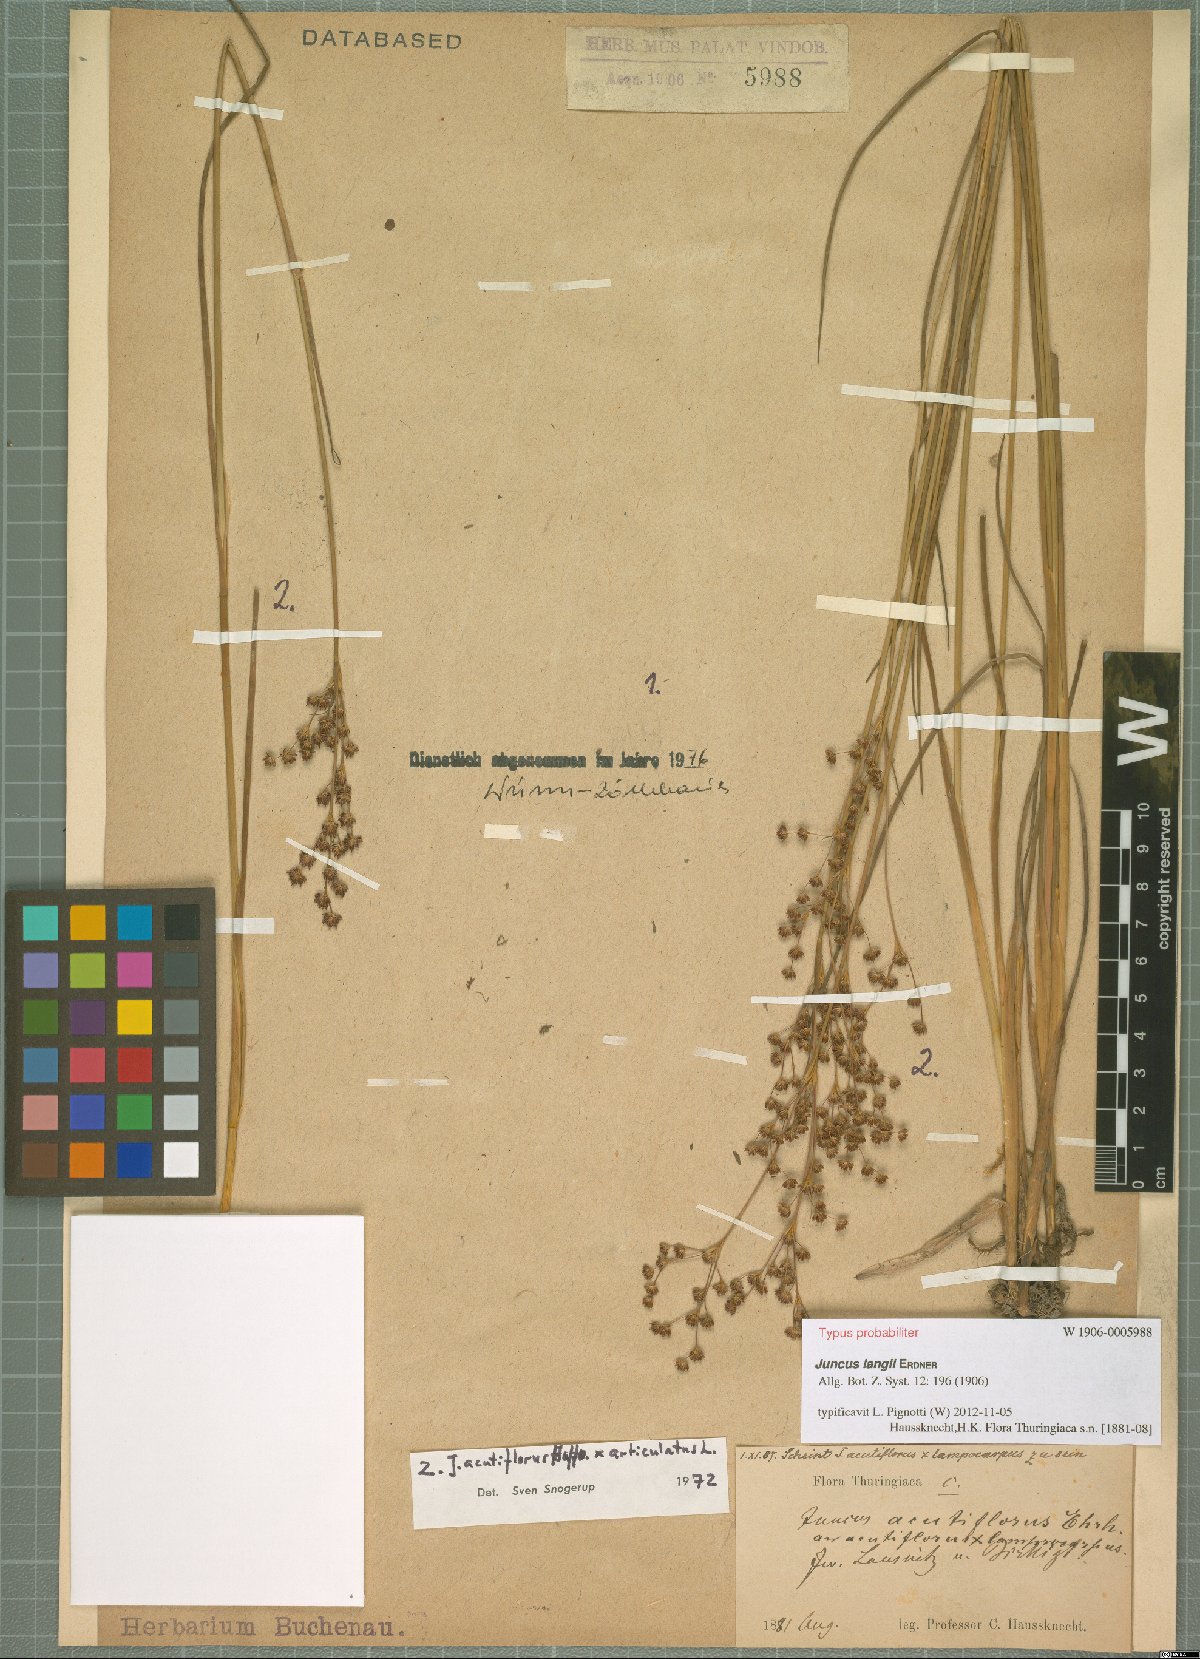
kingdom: Plantae
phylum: Tracheophyta
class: Liliopsida
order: Poales
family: Juncaceae
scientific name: Juncaceae
